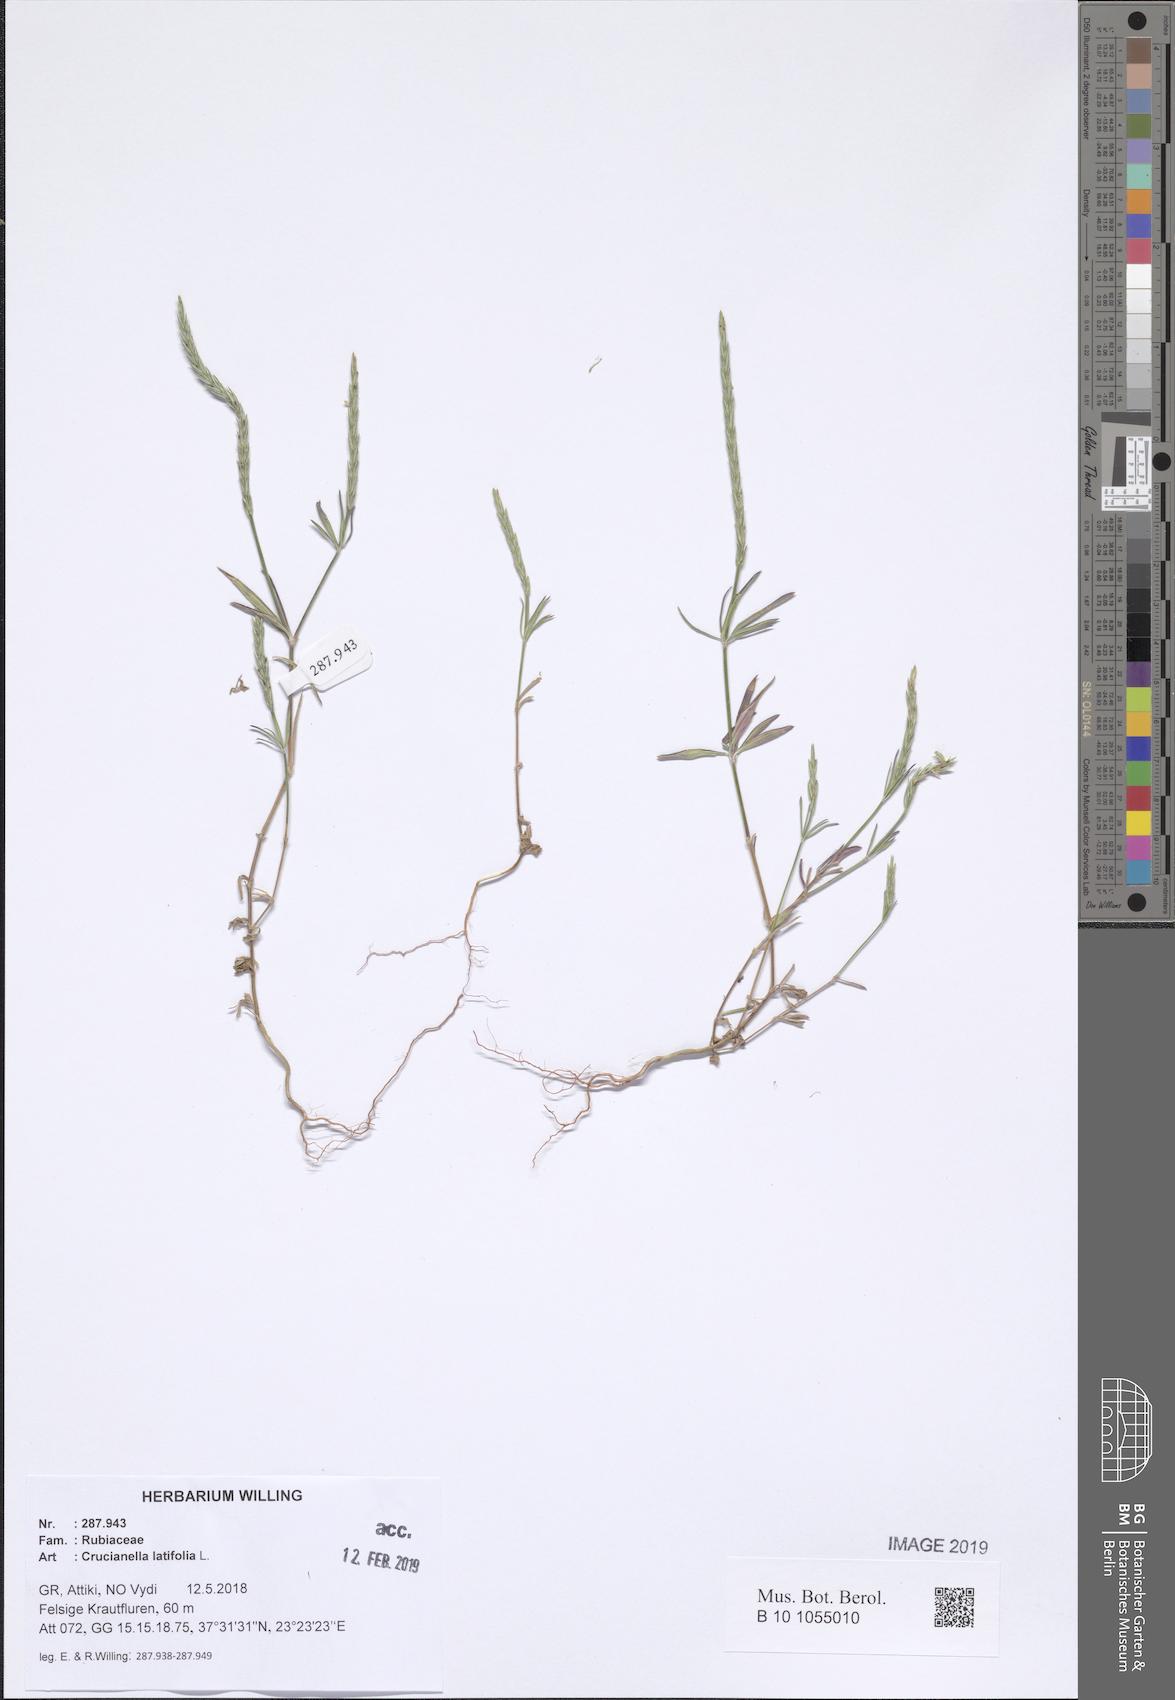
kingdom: Plantae
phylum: Tracheophyta
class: Magnoliopsida
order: Gentianales
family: Rubiaceae
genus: Crucianella
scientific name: Crucianella latifolia
